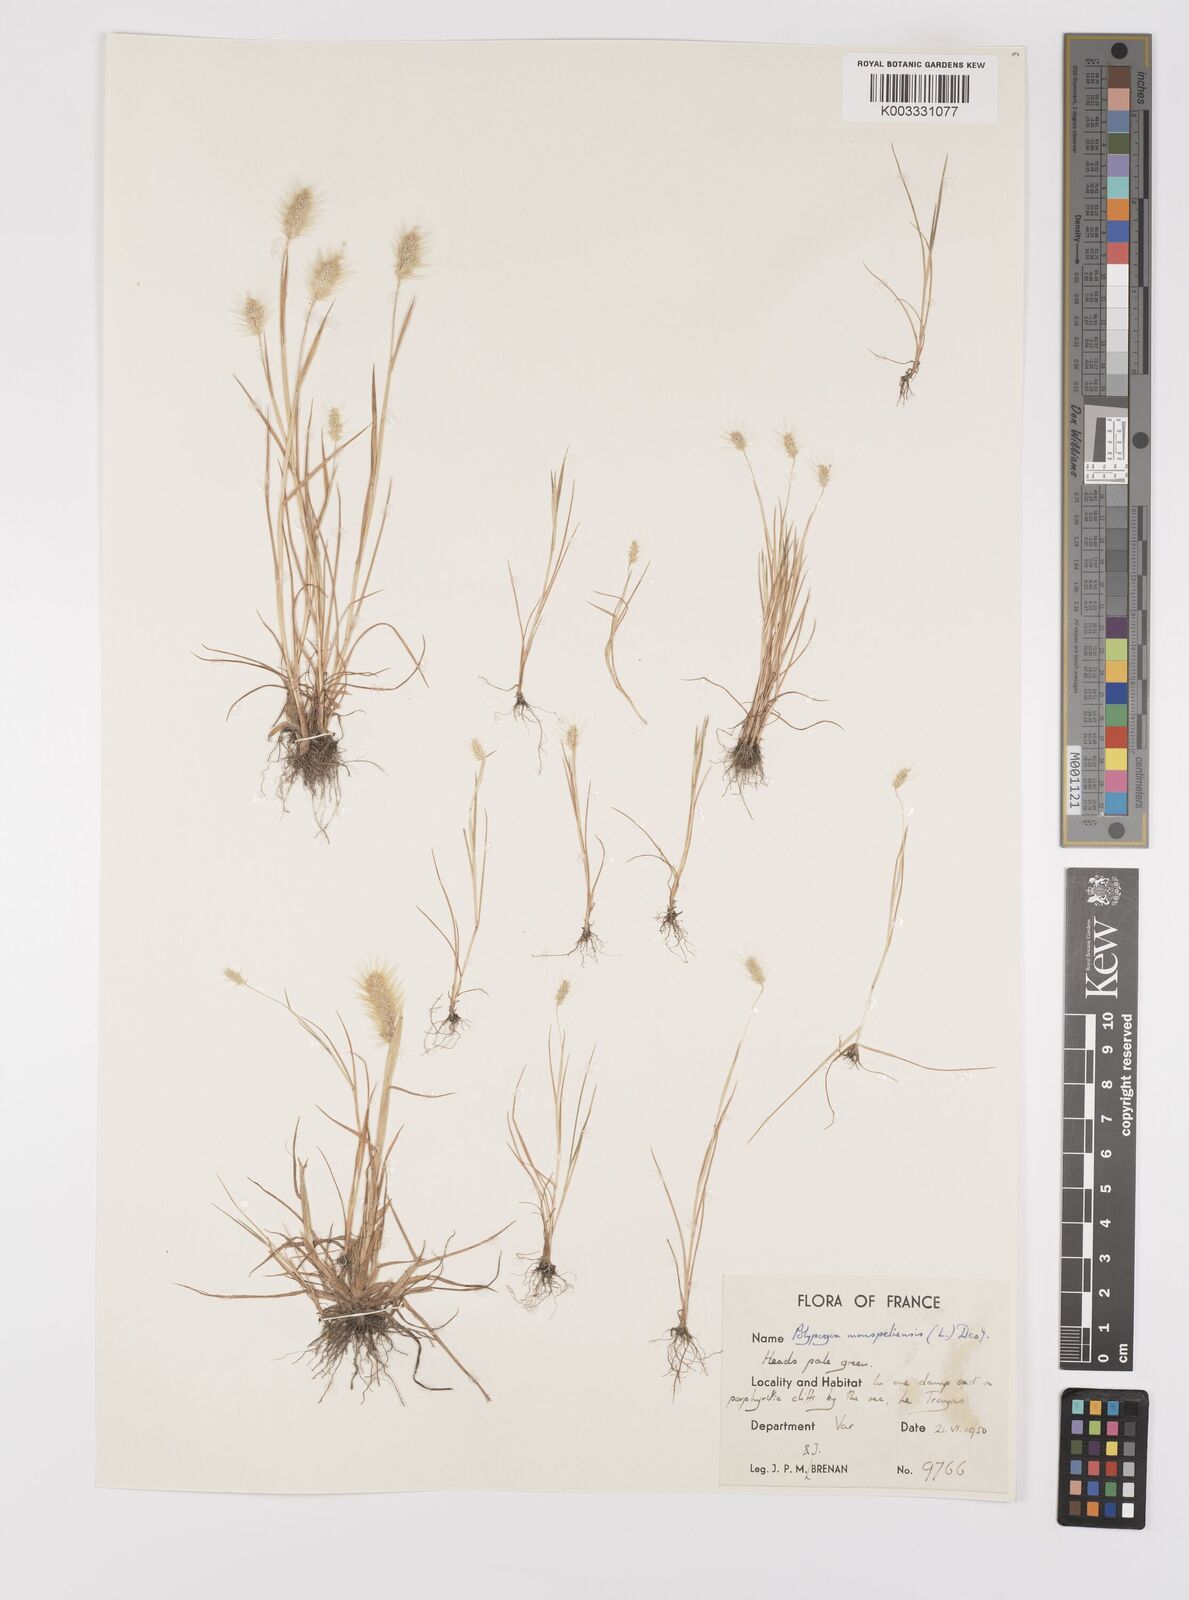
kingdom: Plantae
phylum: Tracheophyta
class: Liliopsida
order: Poales
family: Poaceae
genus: Polypogon
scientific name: Polypogon monspeliensis
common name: Annual rabbitsfoot grass
